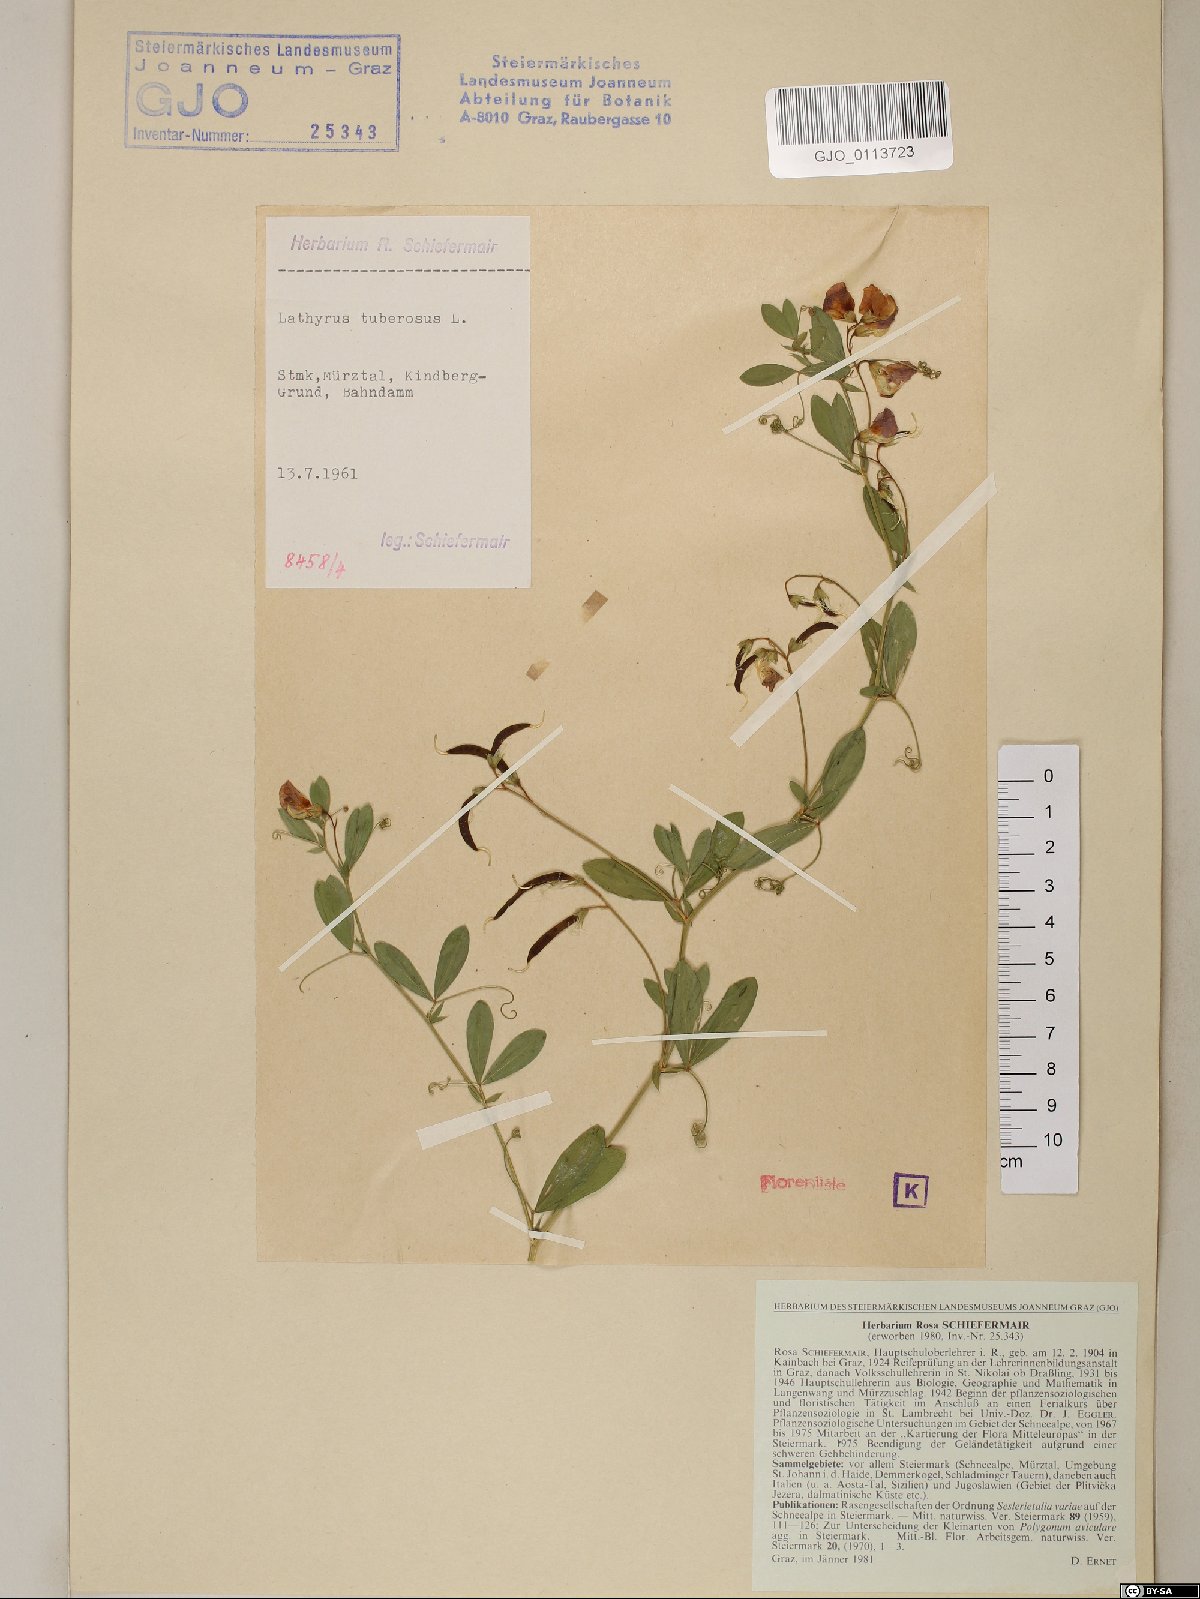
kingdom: Plantae
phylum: Tracheophyta
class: Magnoliopsida
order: Fabales
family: Fabaceae
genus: Lathyrus
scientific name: Lathyrus tuberosus
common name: Tuberous pea
